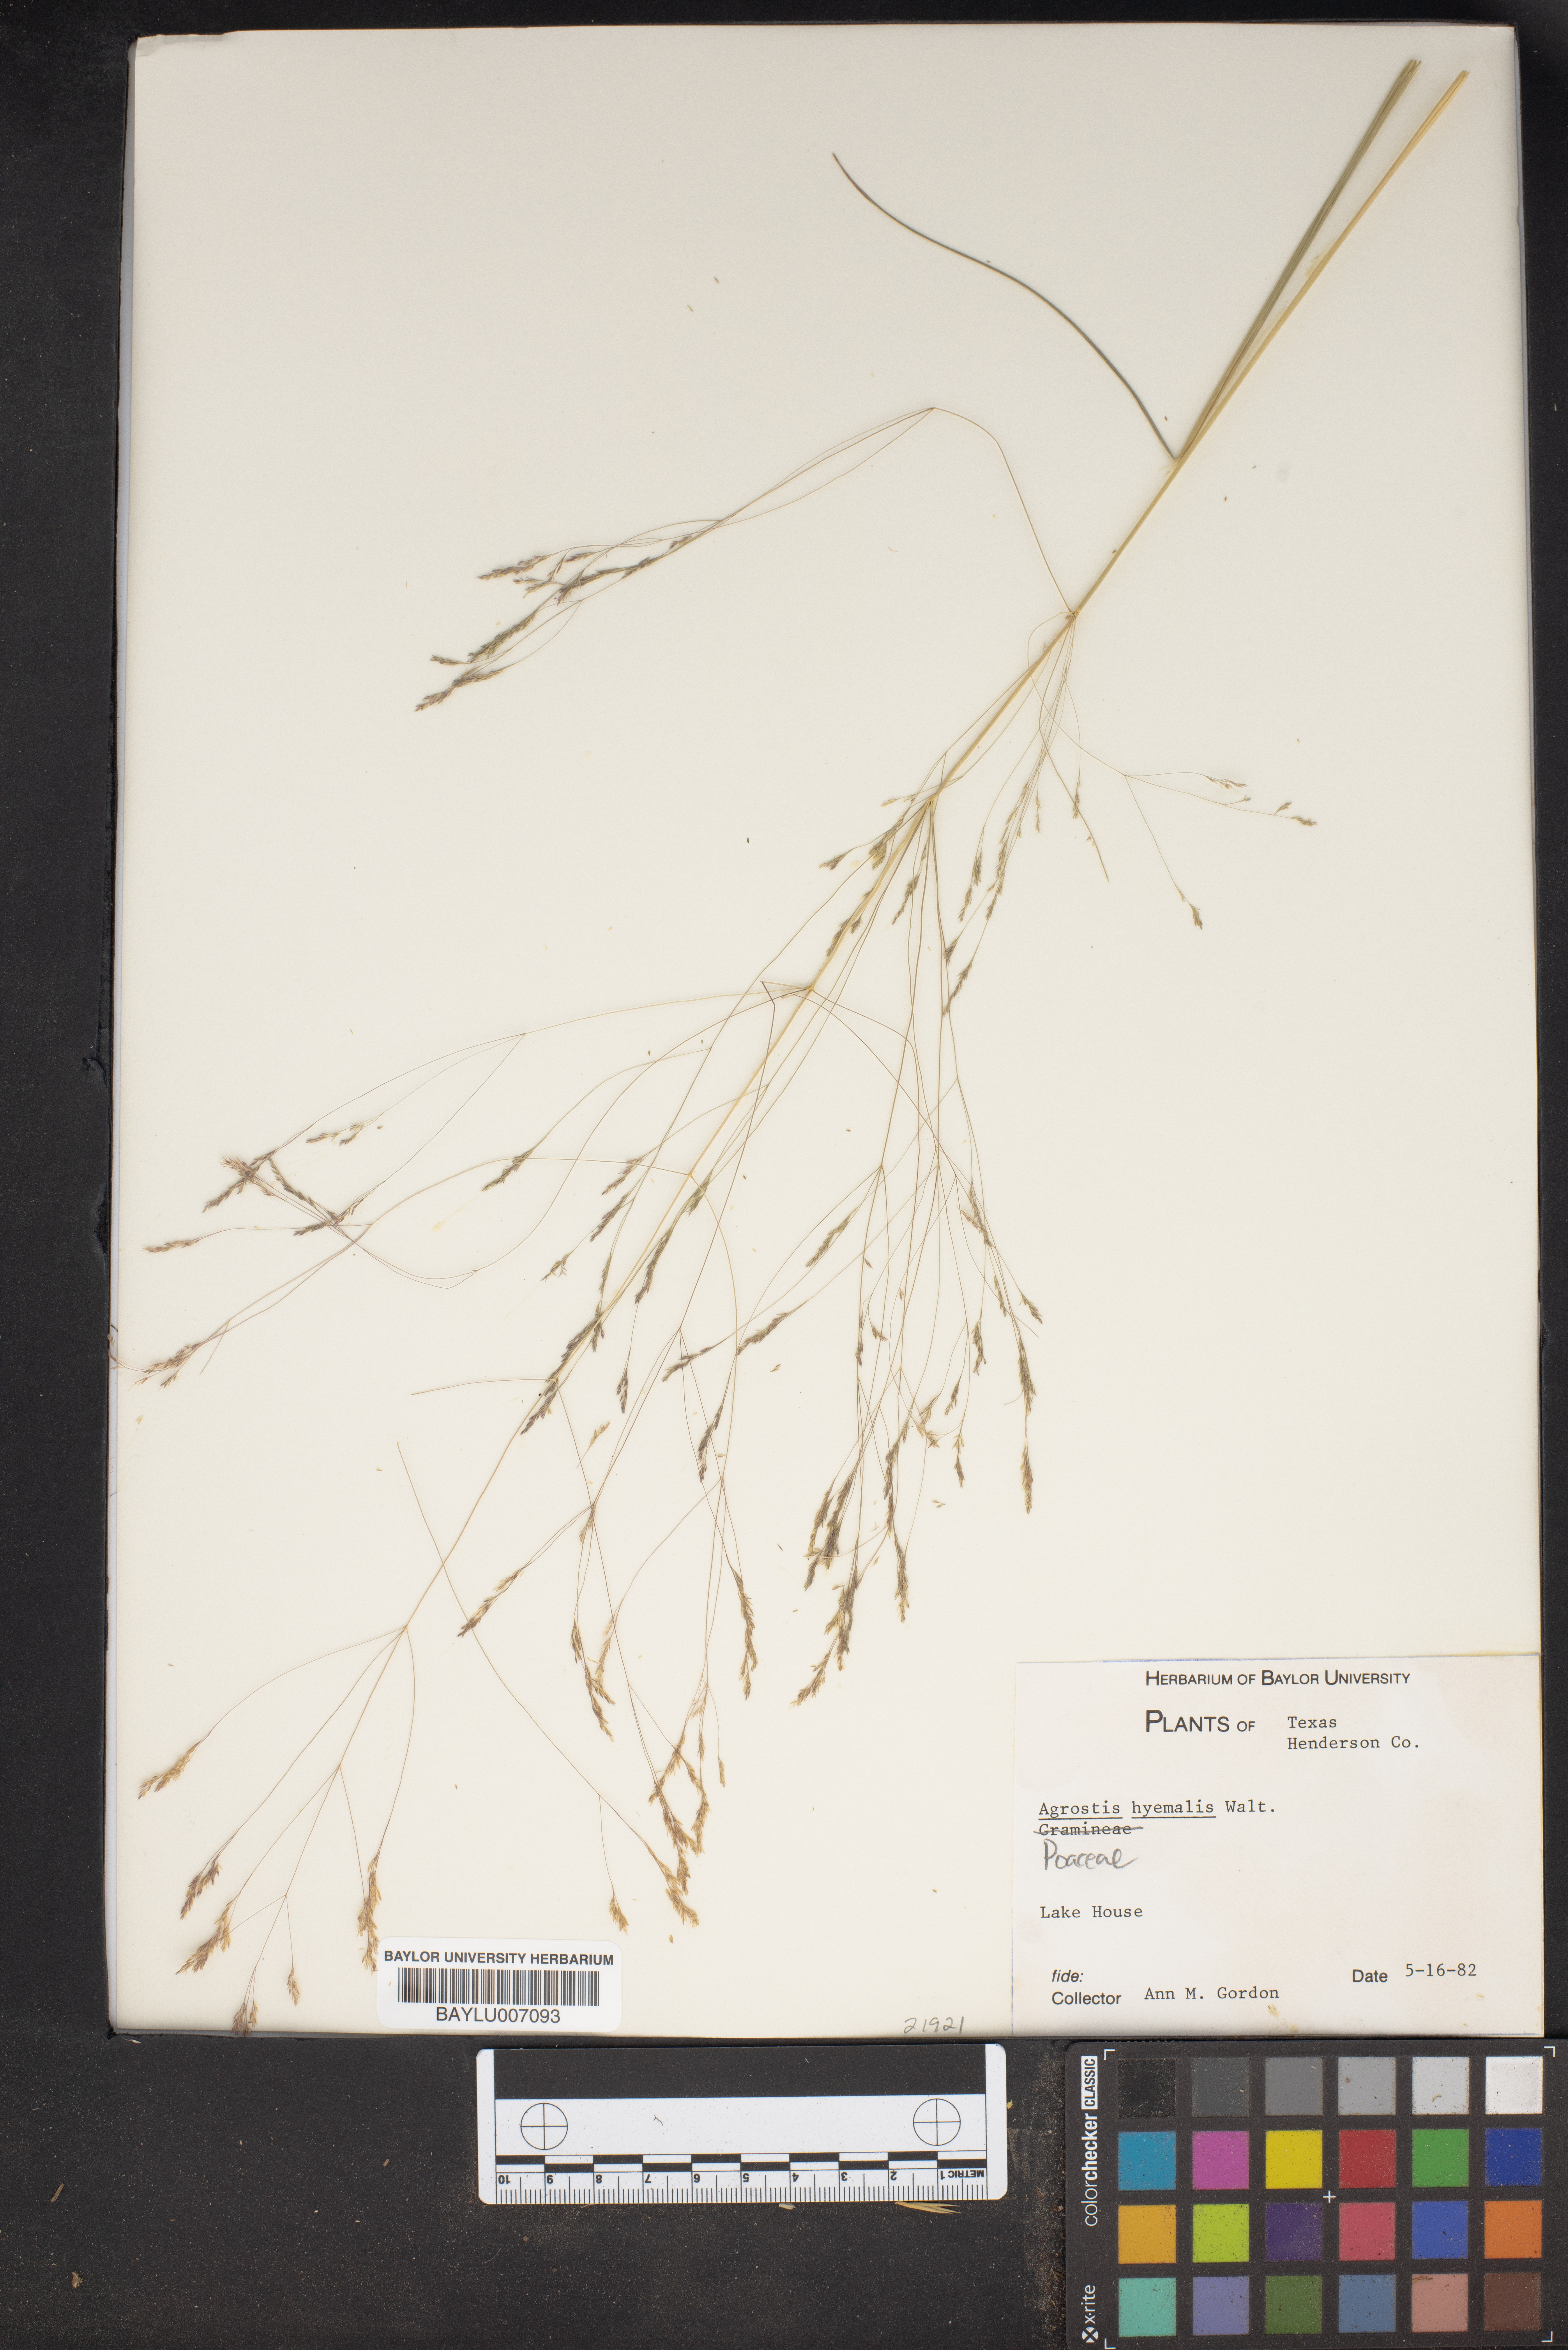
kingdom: Plantae
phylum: Tracheophyta
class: Liliopsida
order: Poales
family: Poaceae
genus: Agrostis
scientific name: Agrostis hyemalis
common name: Small bent
